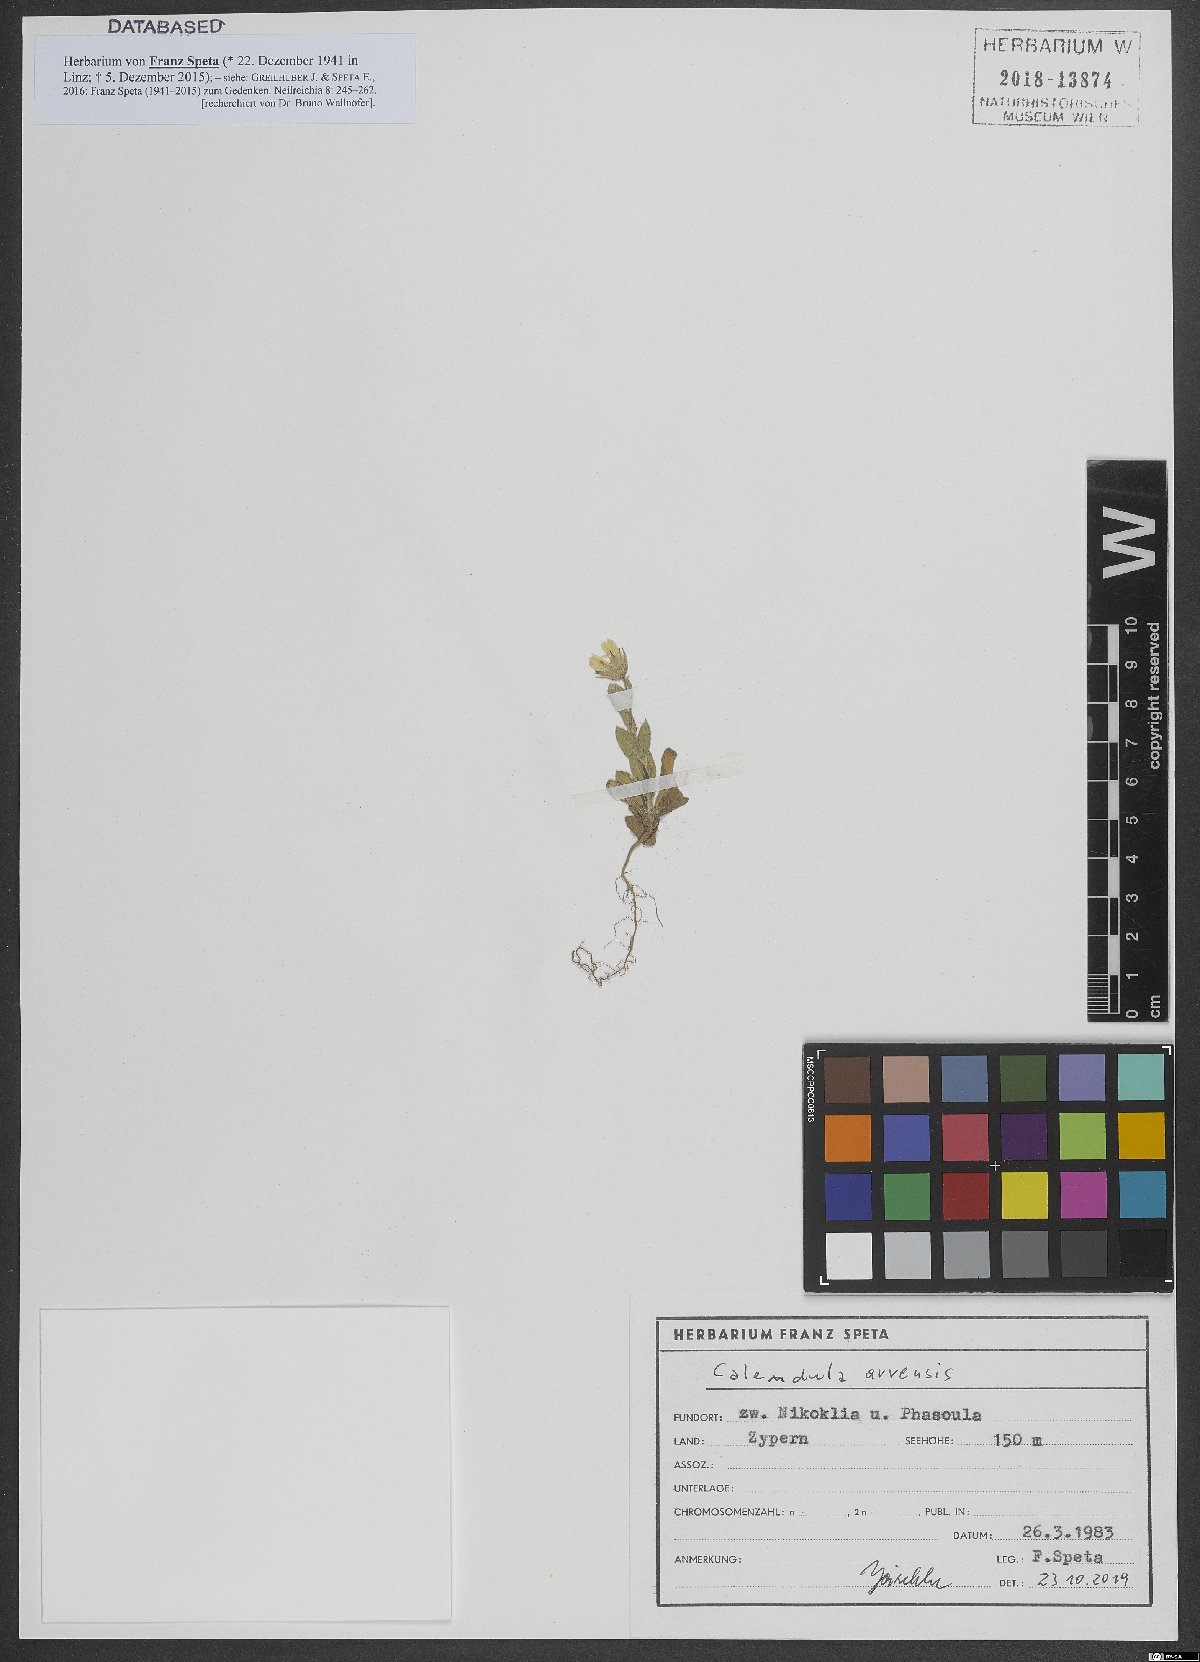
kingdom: Plantae
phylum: Tracheophyta
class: Magnoliopsida
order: Asterales
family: Asteraceae
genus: Calendula
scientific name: Calendula arvensis
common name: Field marigold
